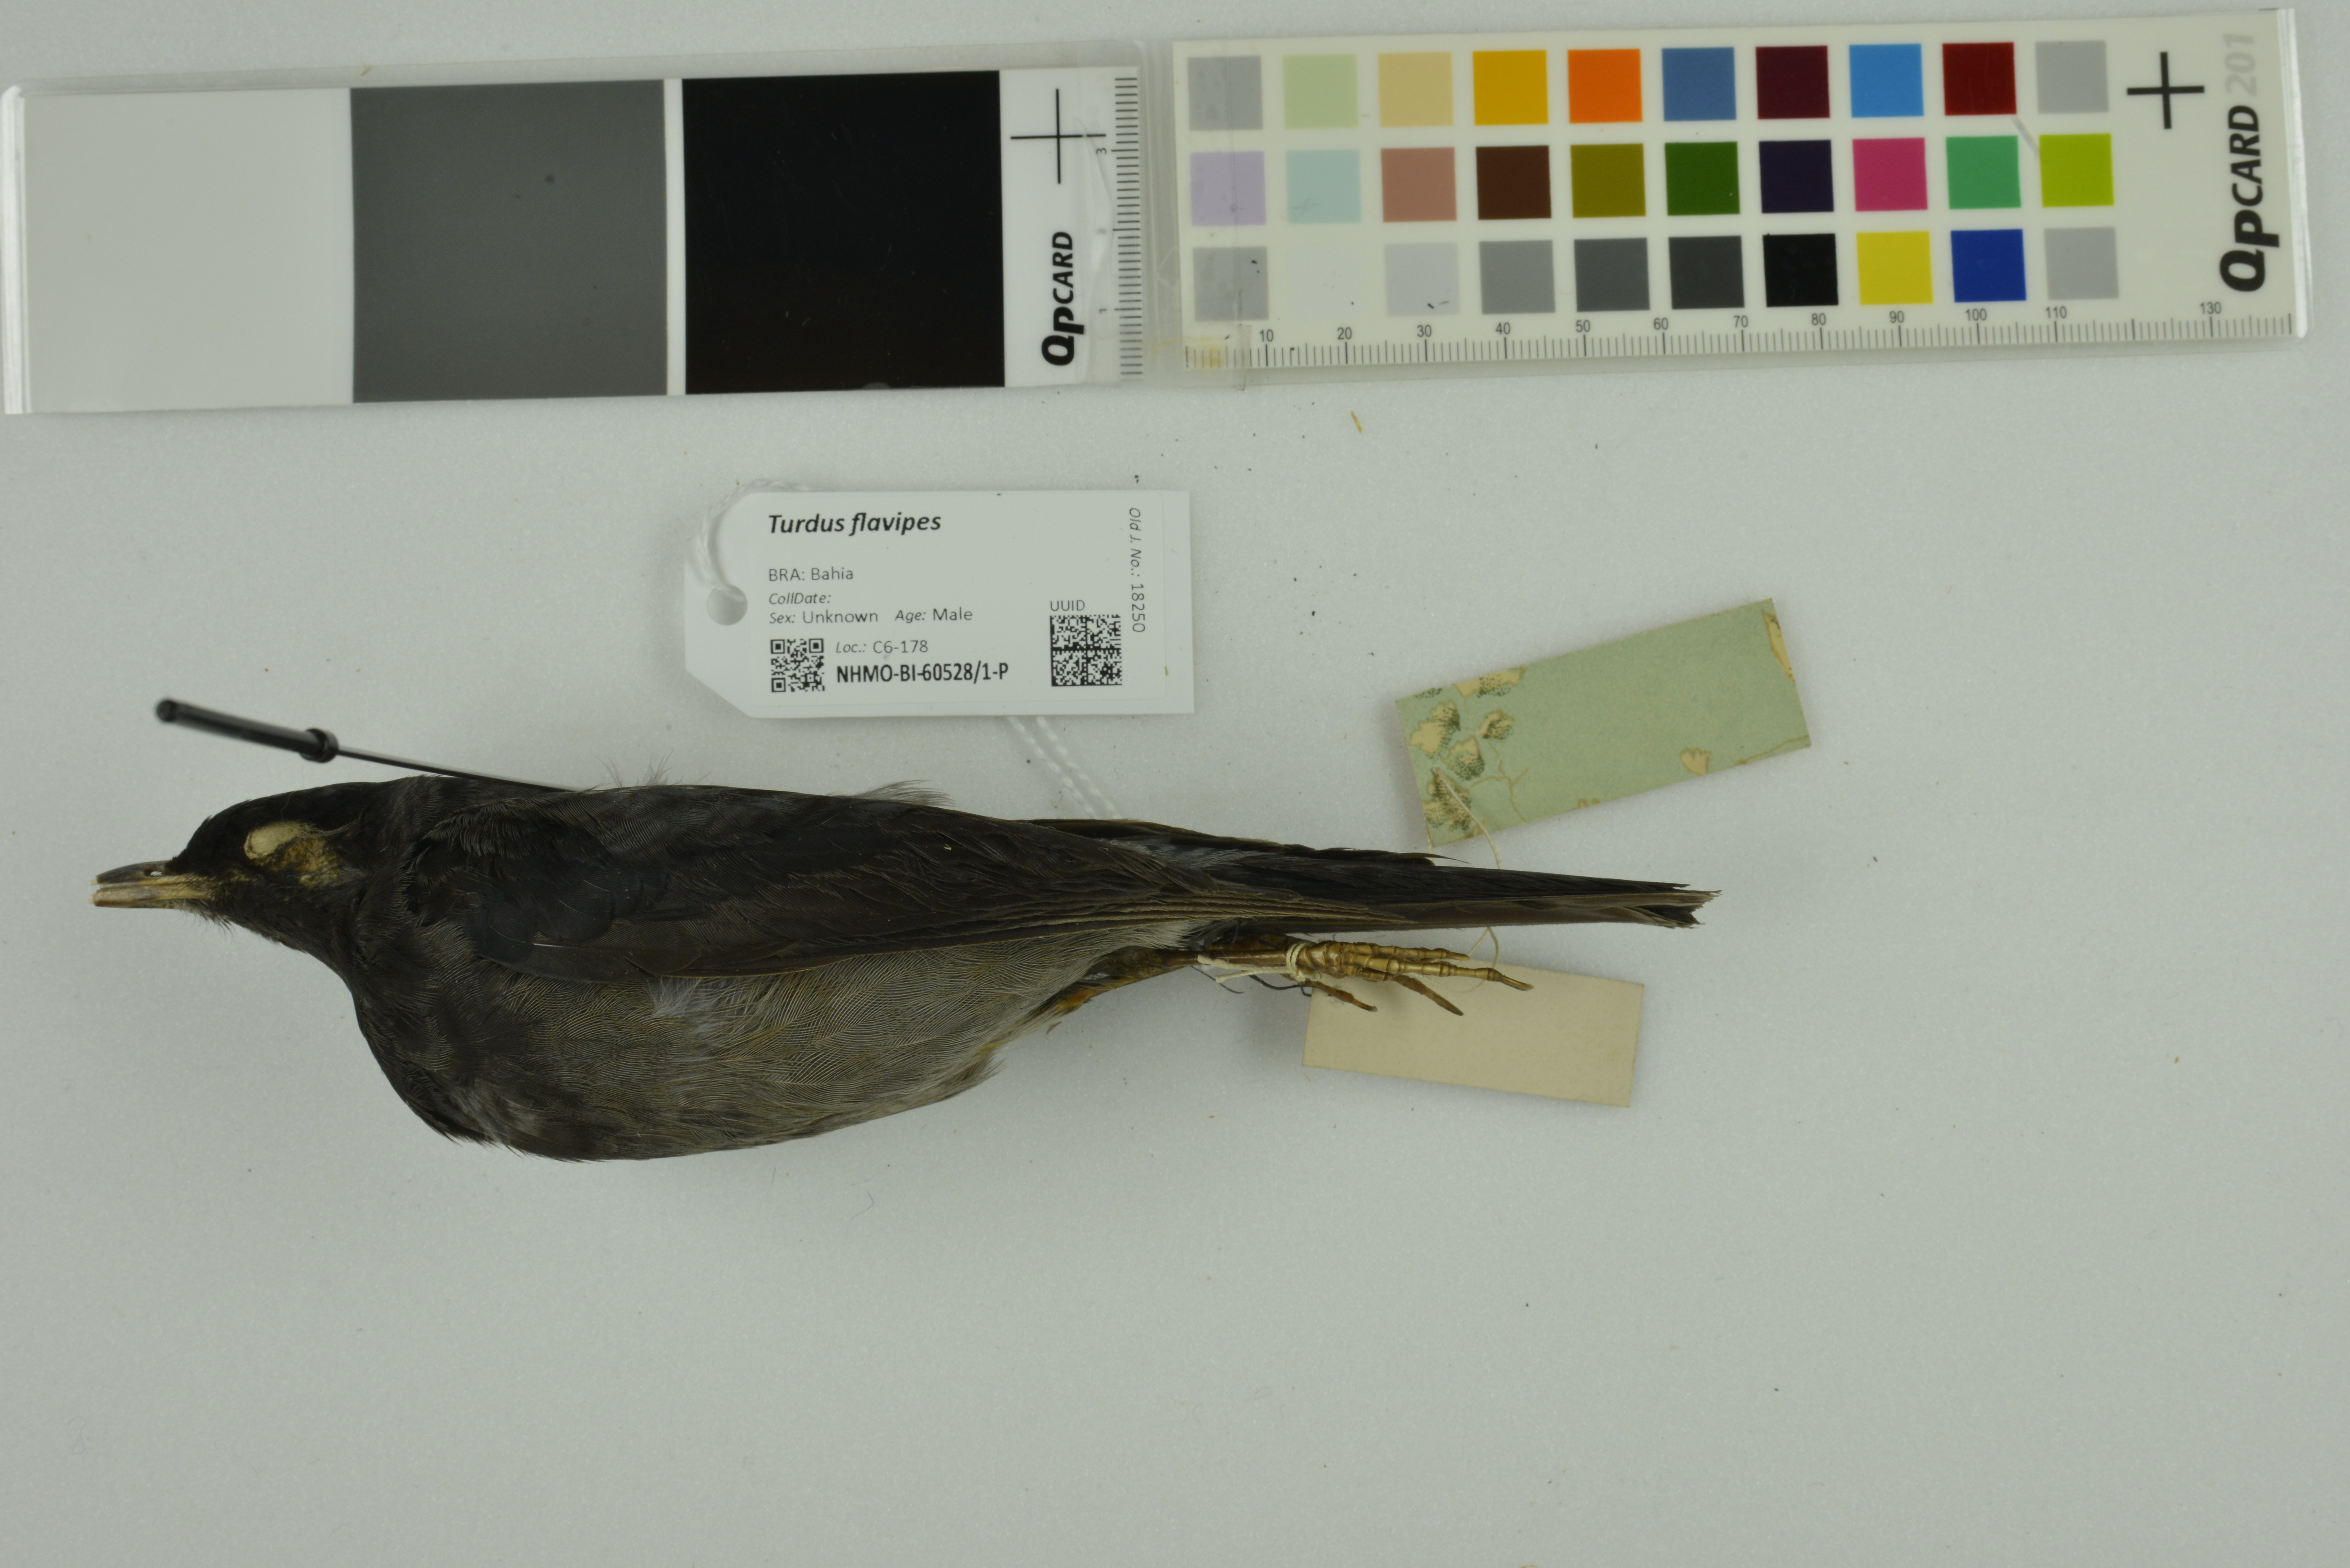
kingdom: Animalia
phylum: Chordata
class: Aves
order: Passeriformes
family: Turdidae
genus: Turdus
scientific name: Turdus flavipes
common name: Yellow-legged thrush
